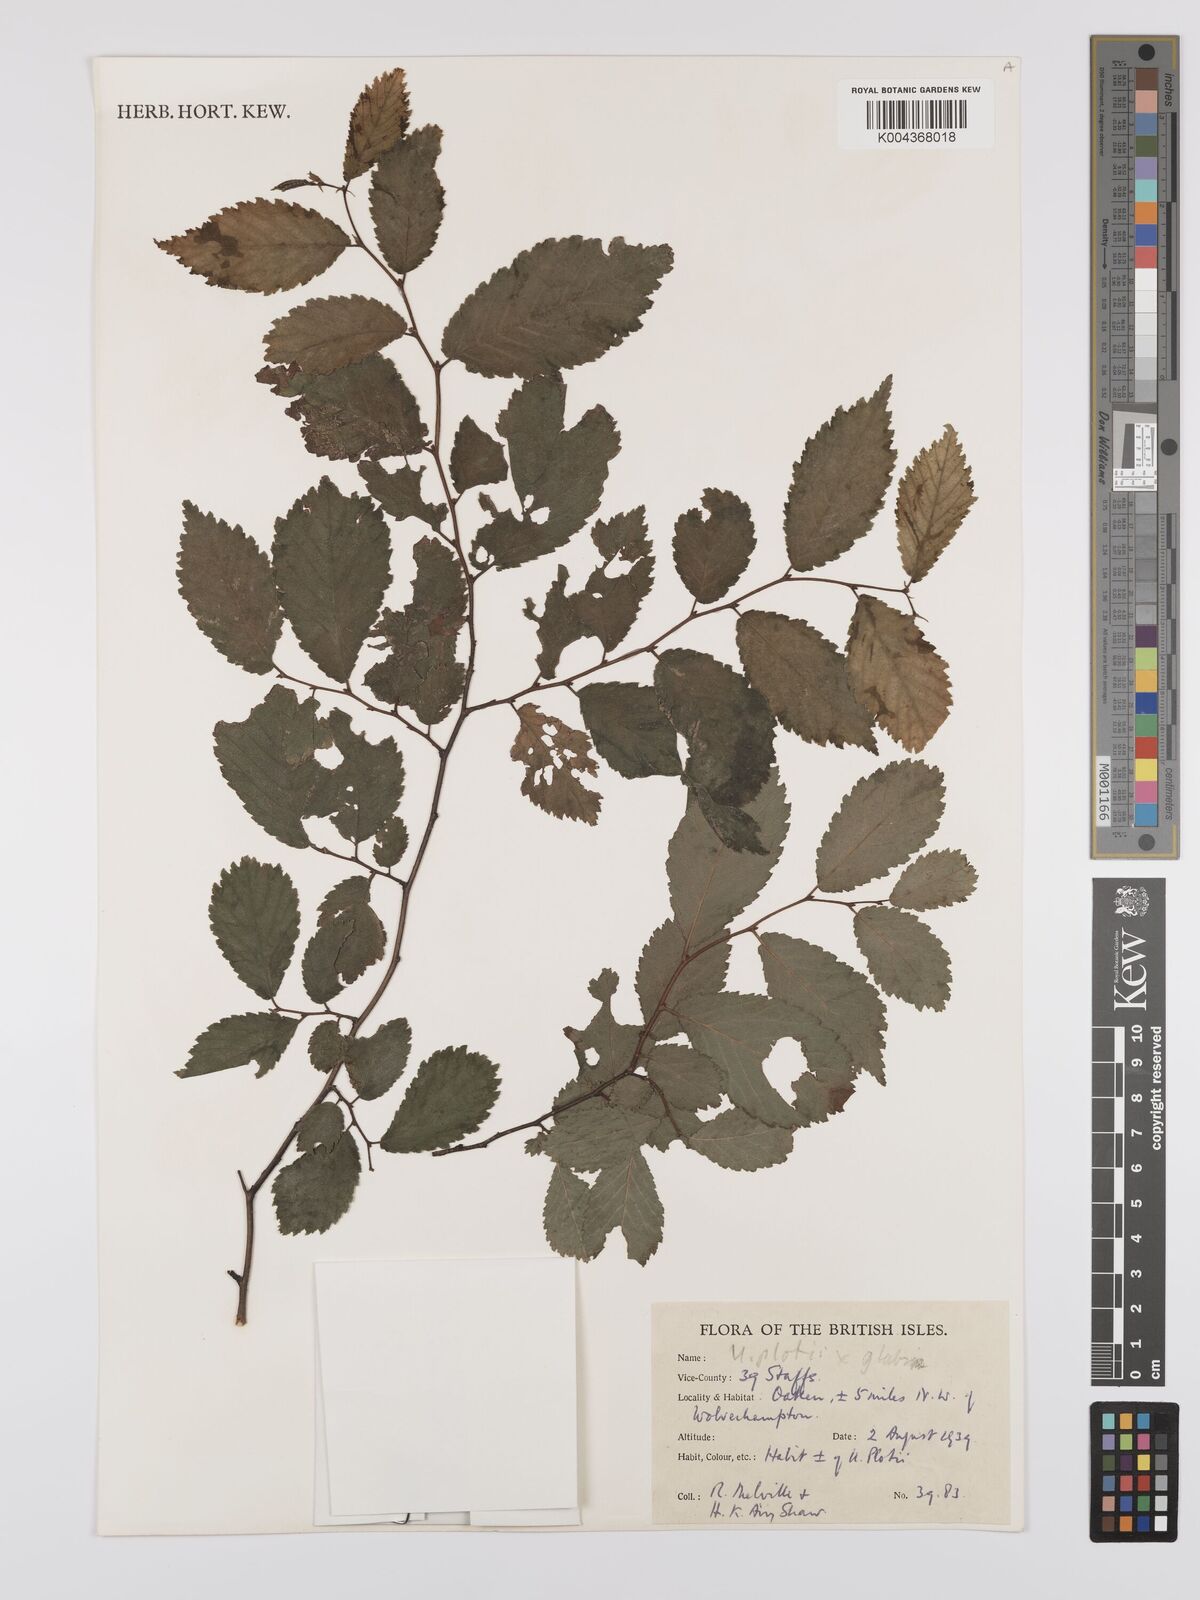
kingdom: Plantae
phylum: Tracheophyta
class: Magnoliopsida
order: Rosales
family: Ulmaceae
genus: Ulmus
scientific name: Ulmus
